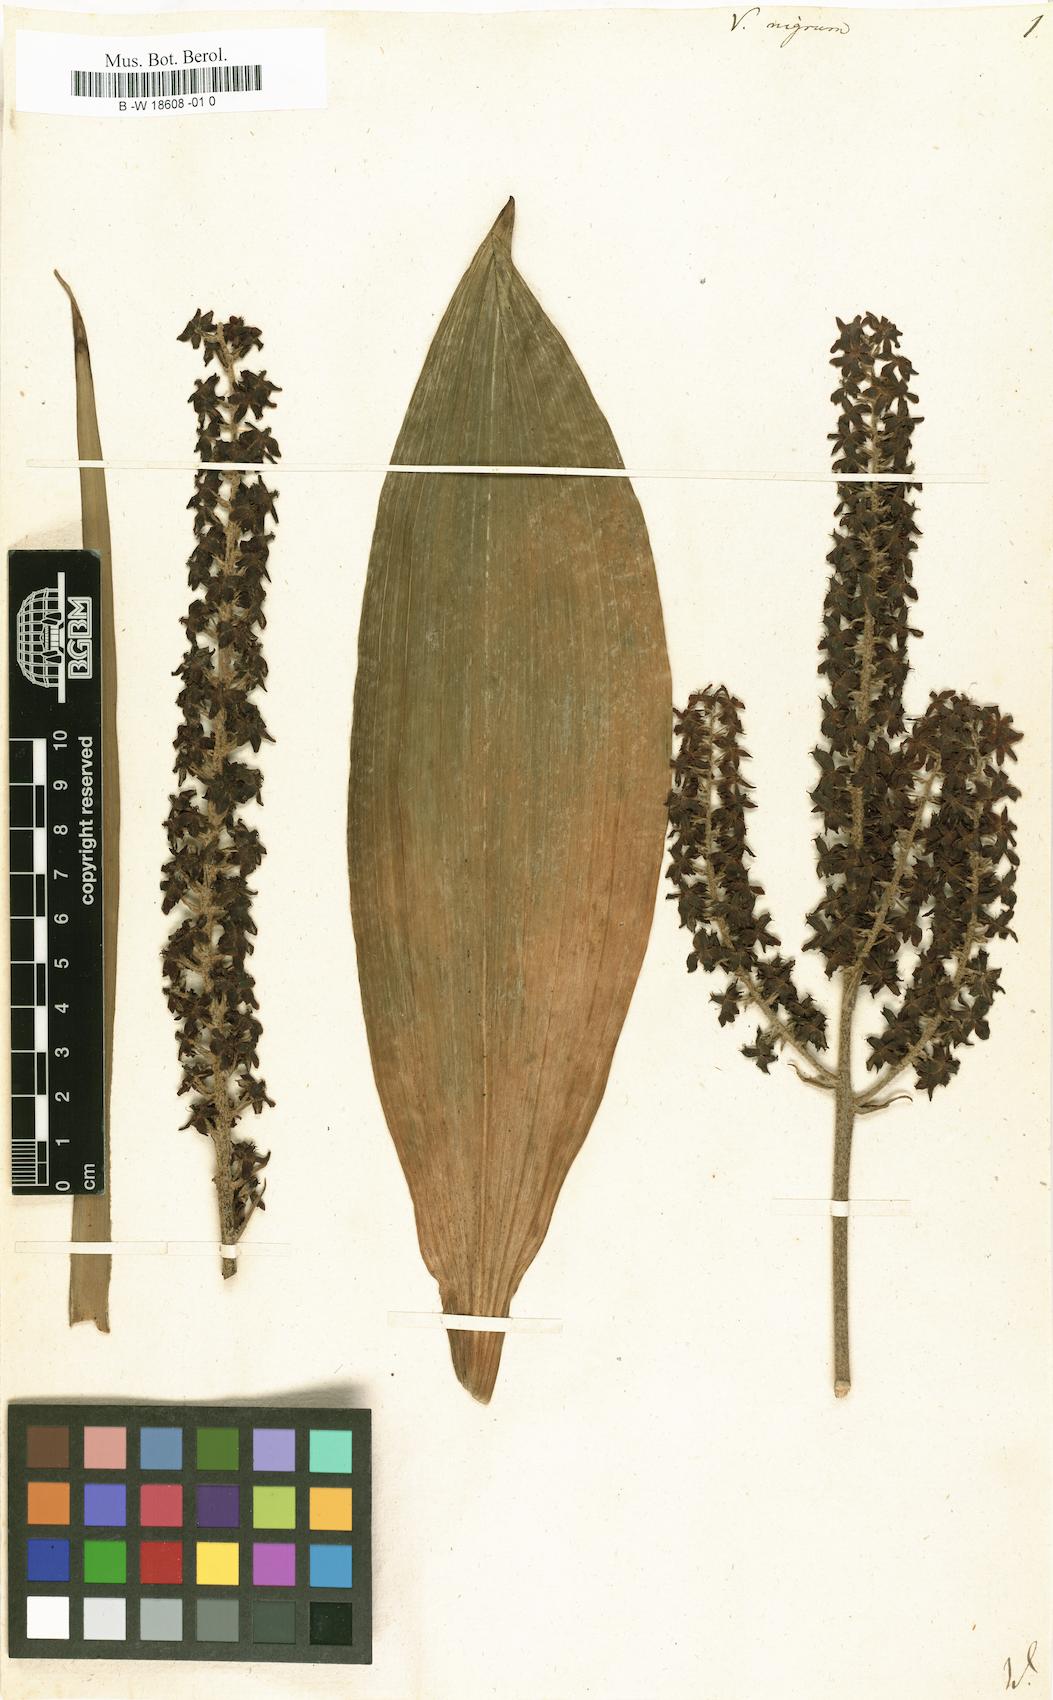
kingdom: Plantae
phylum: Tracheophyta
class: Liliopsida
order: Liliales
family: Melanthiaceae
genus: Veratrum
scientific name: Veratrum nigrum
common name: Black veratrum
